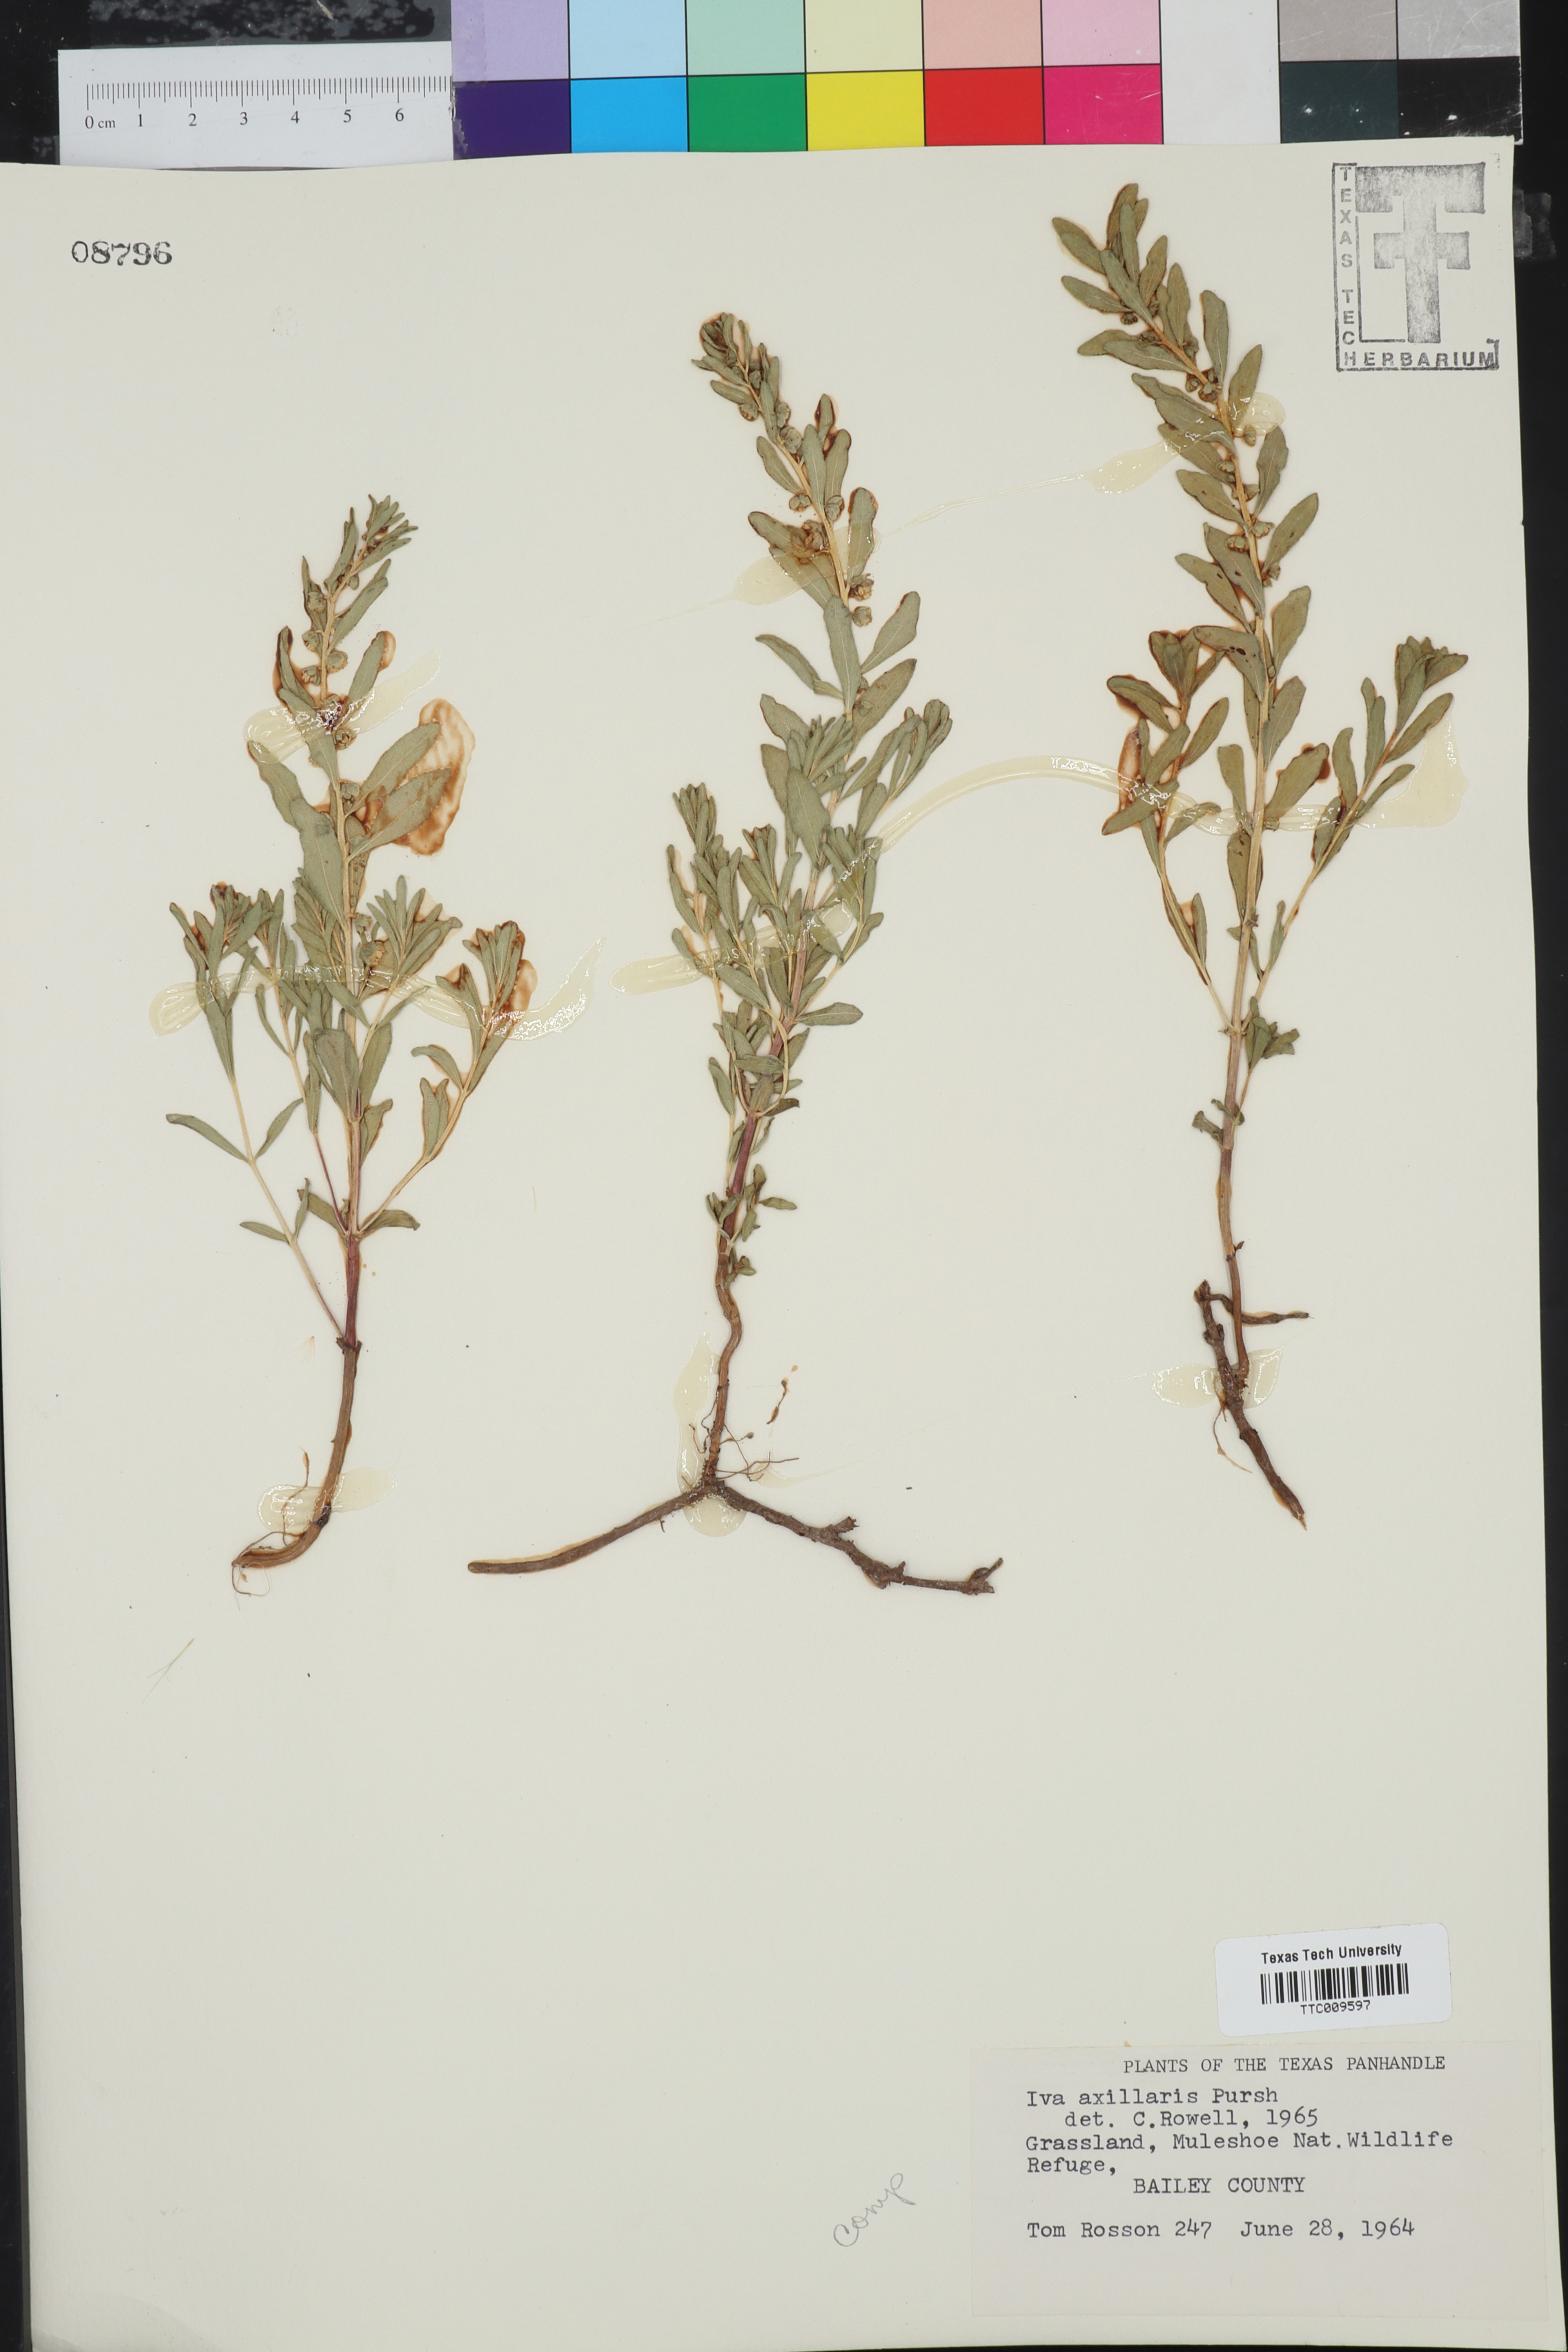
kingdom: Plantae
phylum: Tracheophyta
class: Magnoliopsida
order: Asterales
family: Asteraceae
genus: Iva
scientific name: Iva axillaris
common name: Poverty sumpweed
